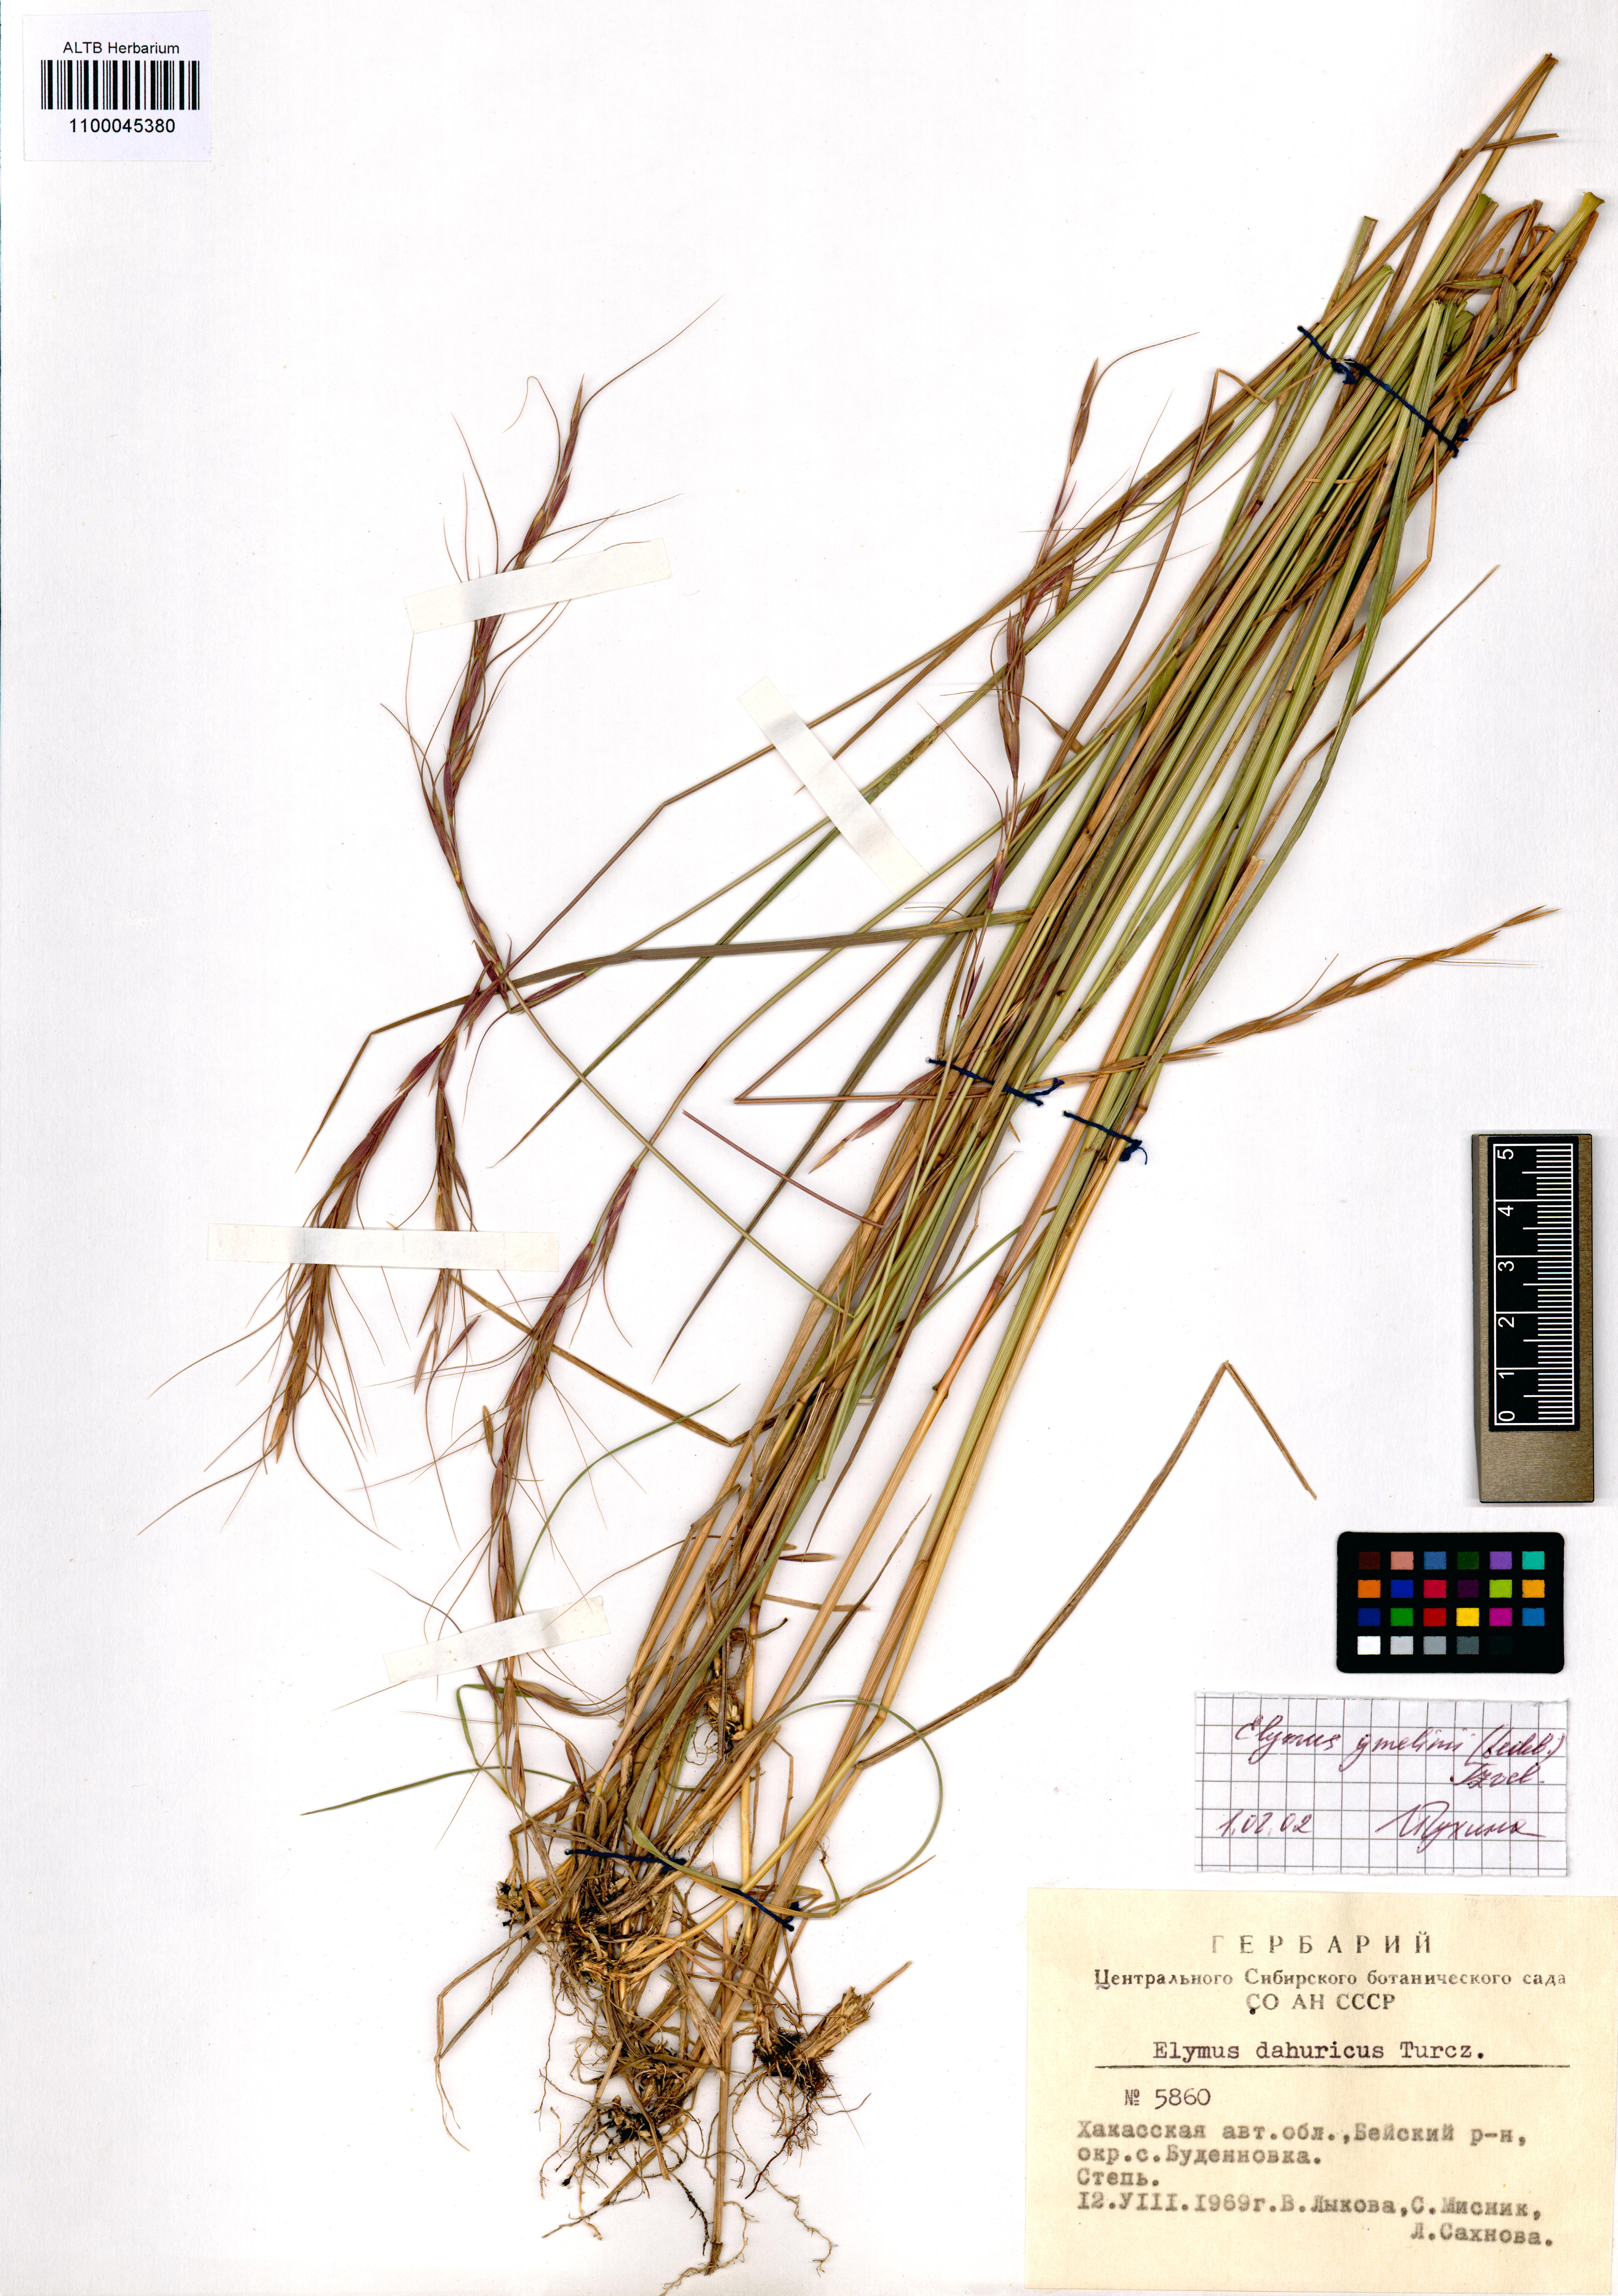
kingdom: Plantae
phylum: Tracheophyta
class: Liliopsida
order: Poales
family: Poaceae
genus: Elymus
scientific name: Elymus dahuricus
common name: Dahurian wild rye
